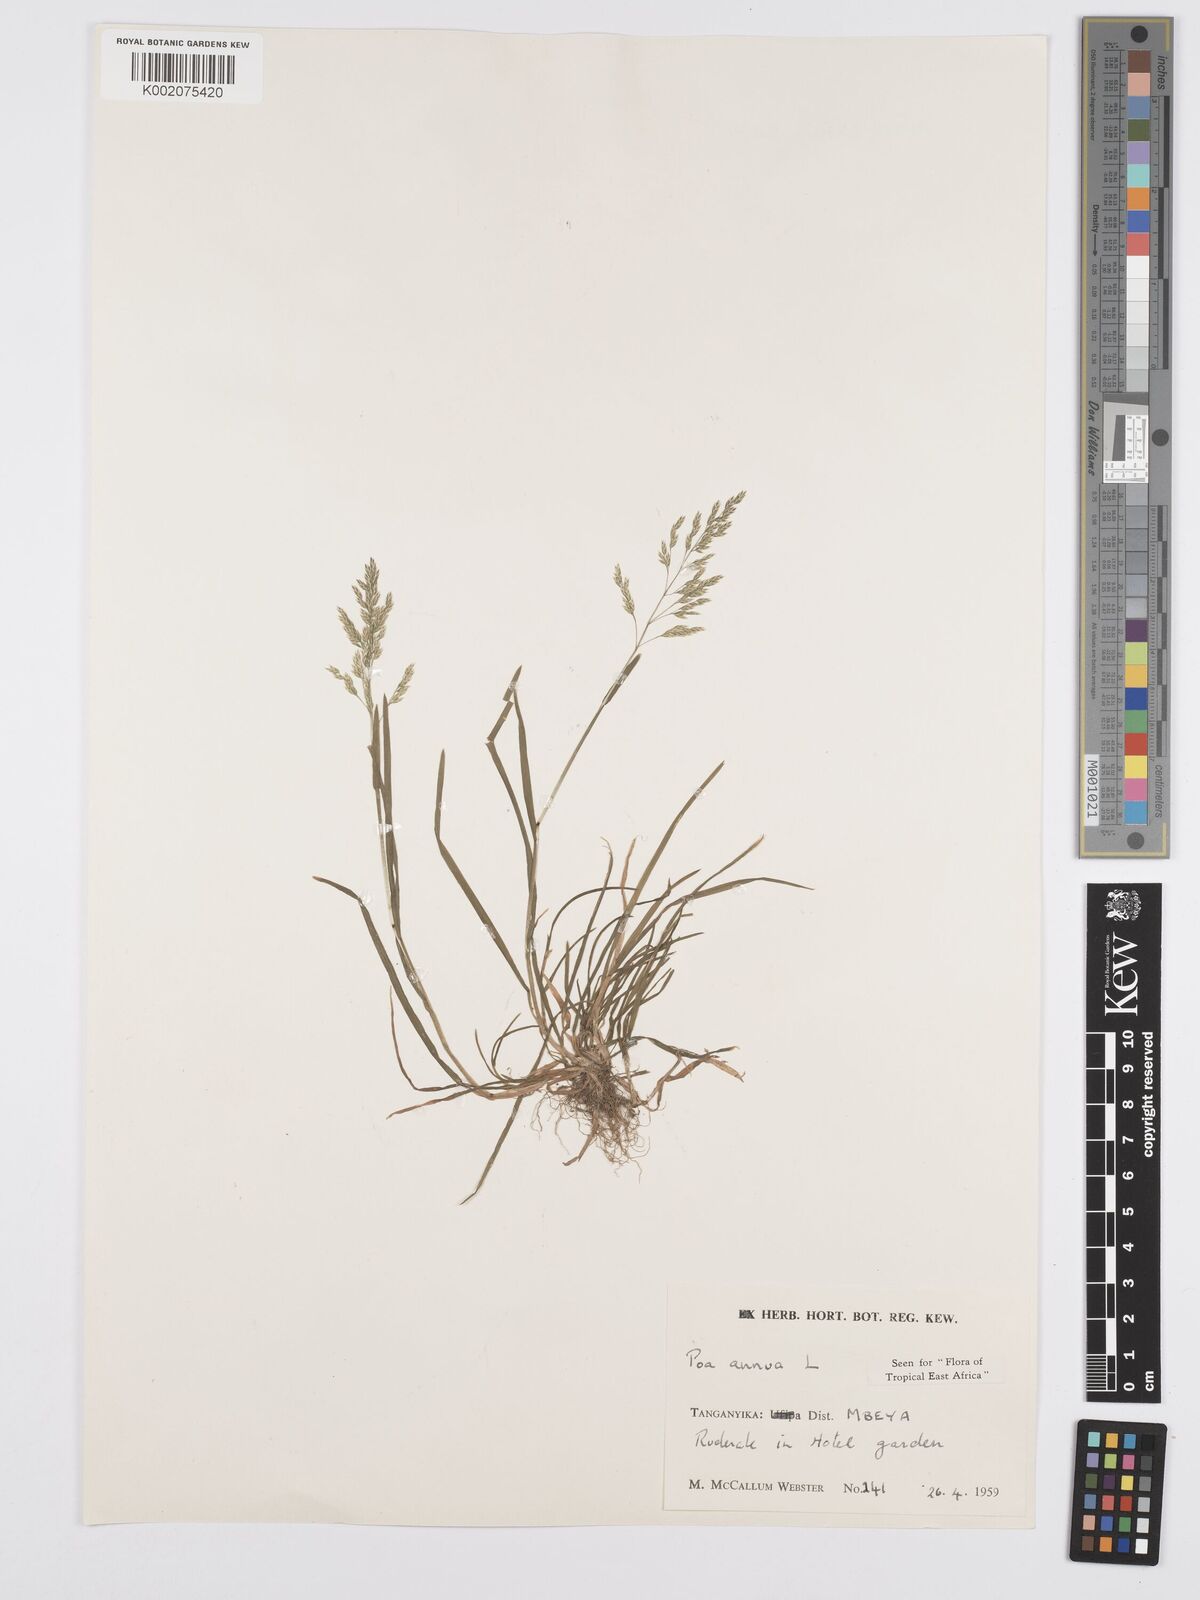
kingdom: Plantae
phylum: Tracheophyta
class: Liliopsida
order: Poales
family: Poaceae
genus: Poa
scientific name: Poa annua
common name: Annual bluegrass
